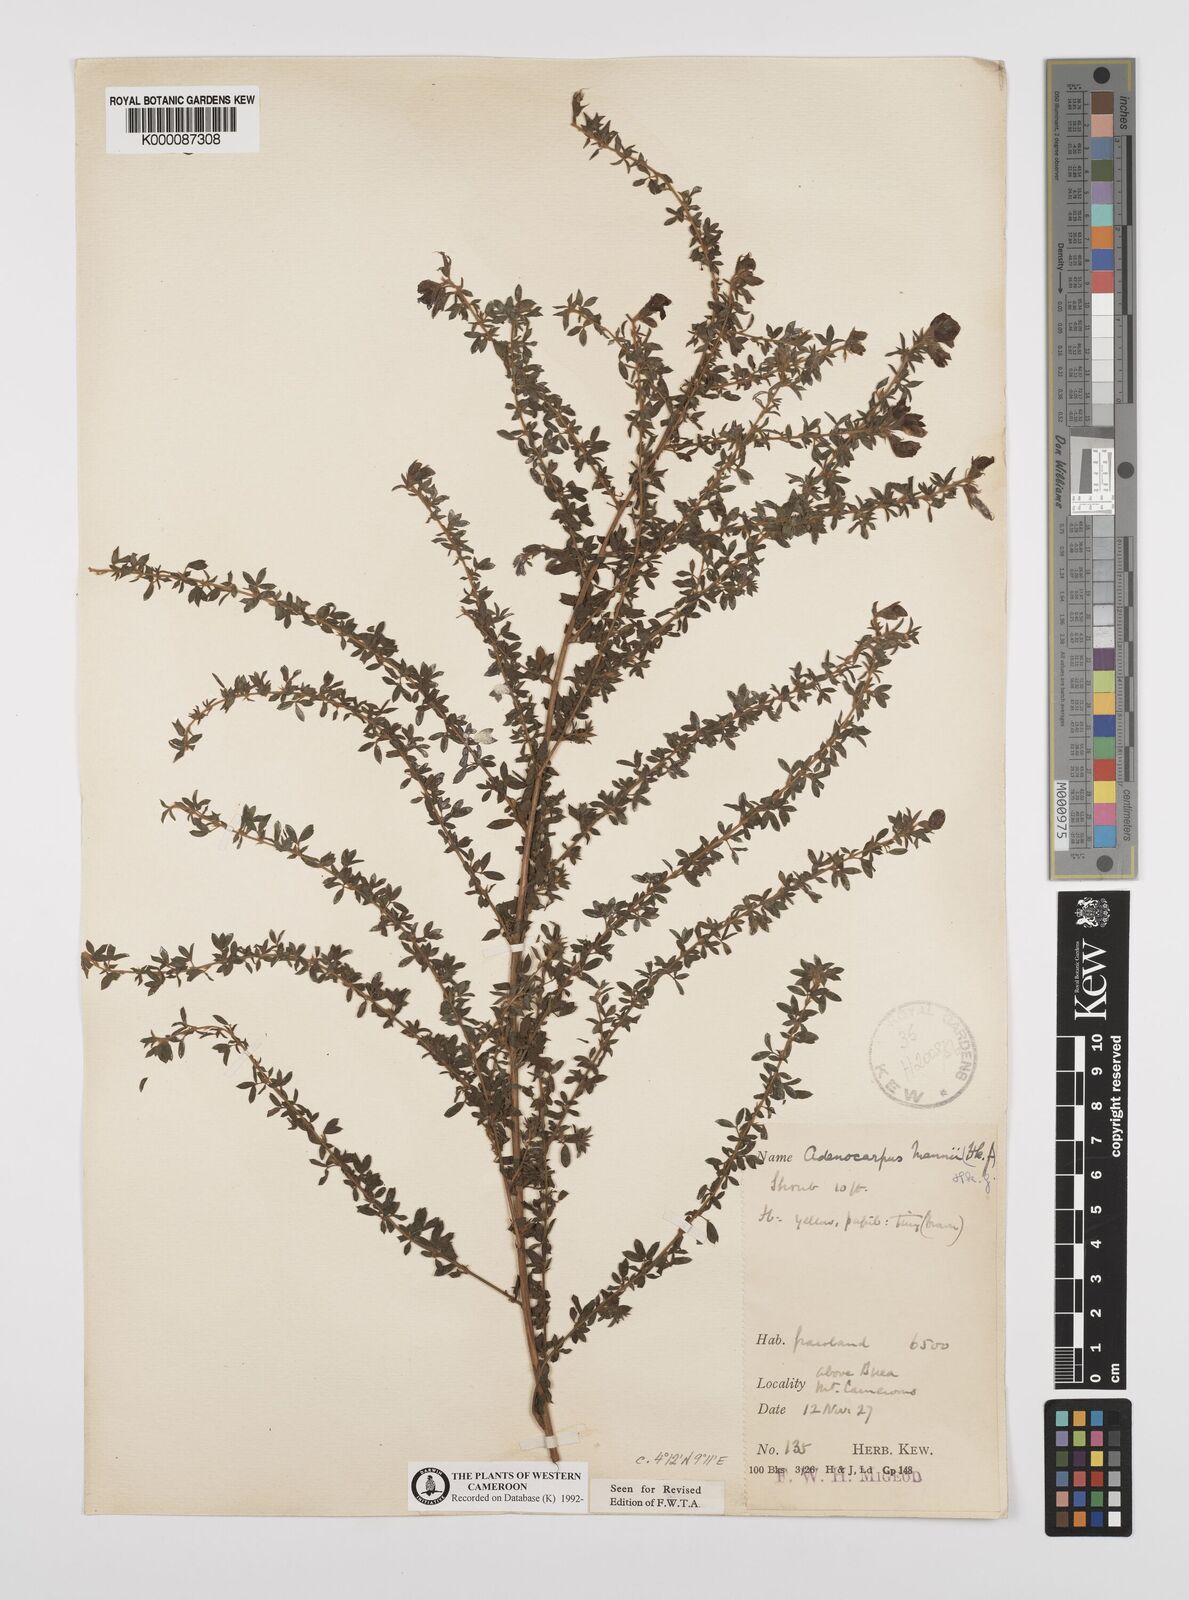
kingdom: Plantae
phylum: Tracheophyta
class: Magnoliopsida
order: Fabales
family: Fabaceae
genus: Adenocarpus
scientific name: Adenocarpus mannii
